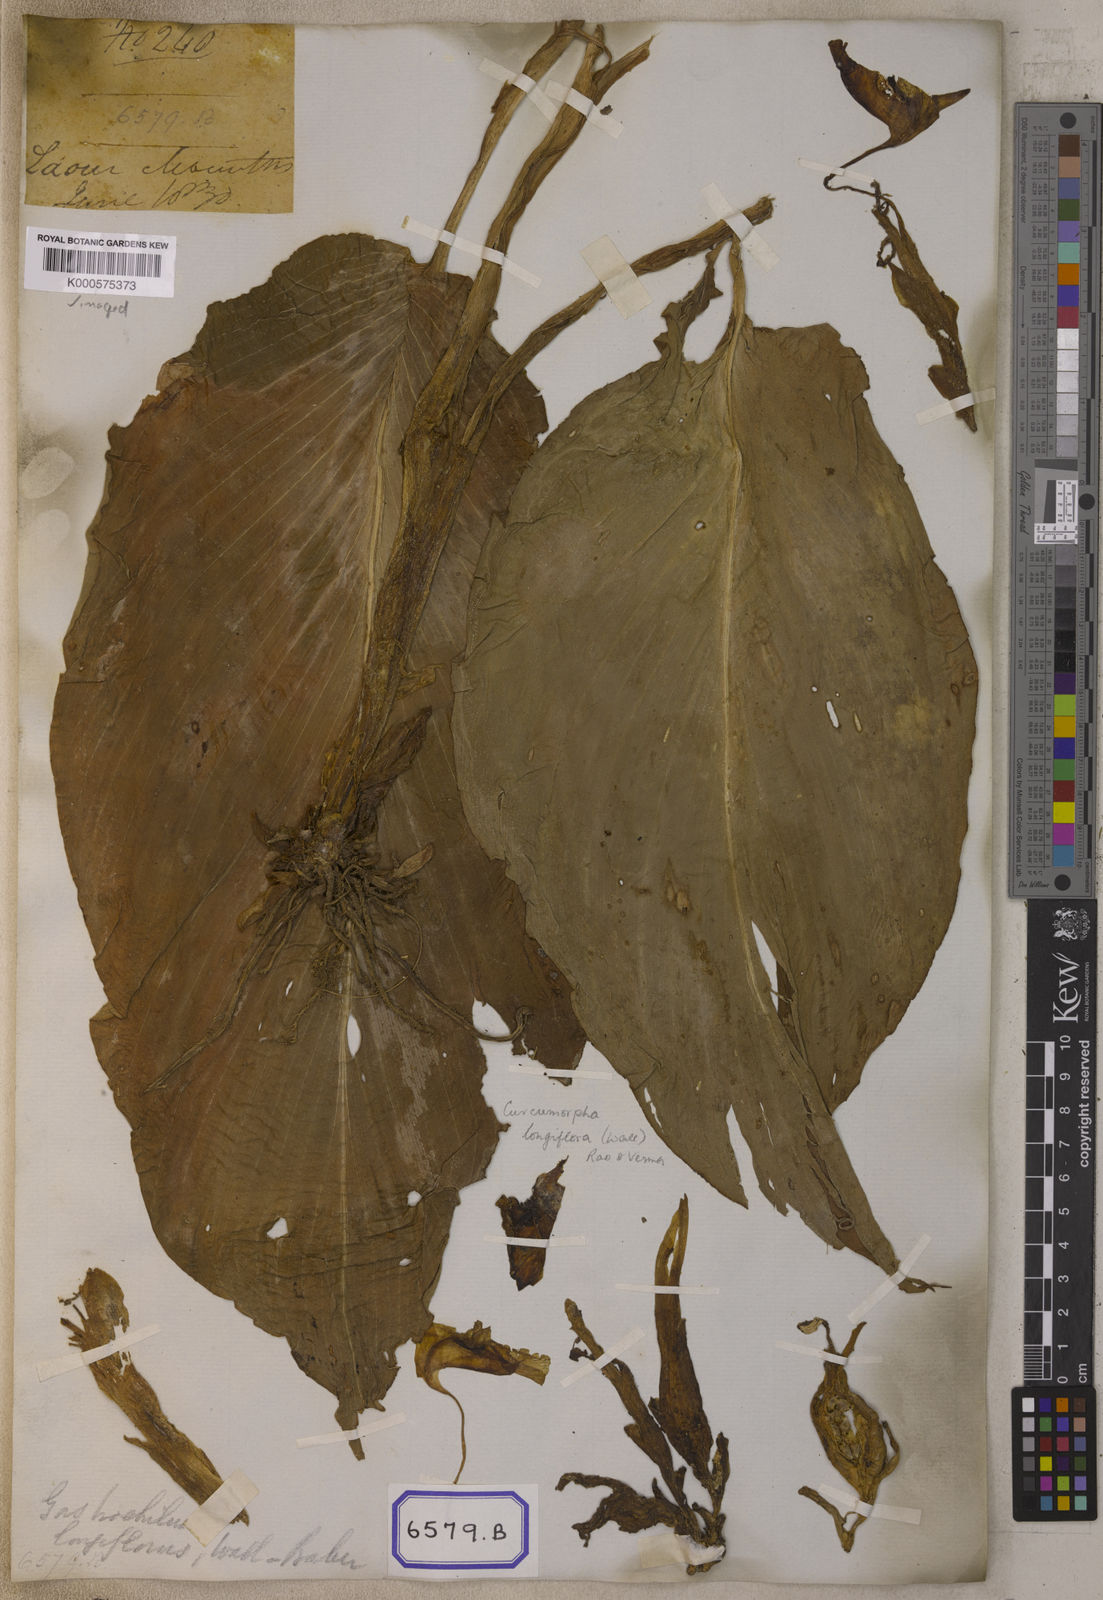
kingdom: Plantae
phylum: Tracheophyta
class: Liliopsida
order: Zingiberales
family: Zingiberaceae
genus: Boesenbergia
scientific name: Boesenbergia hamiltonii
